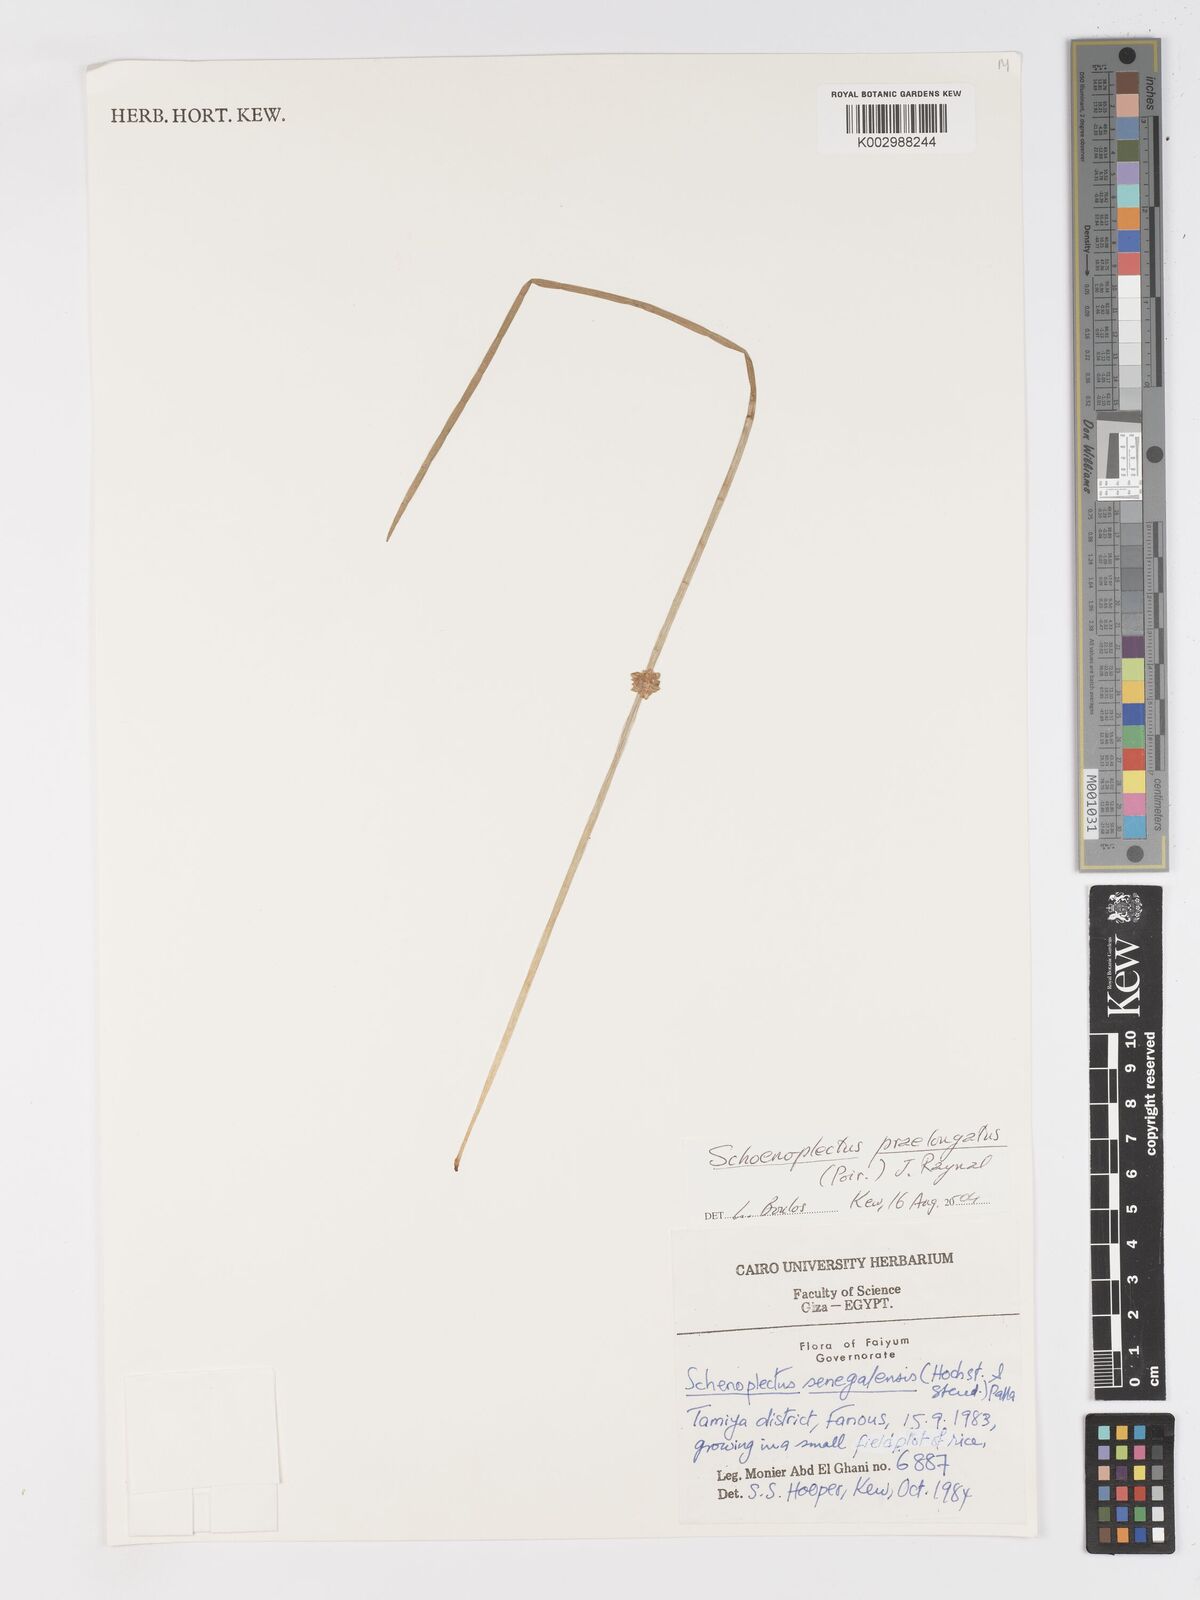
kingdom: Plantae
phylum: Tracheophyta
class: Liliopsida
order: Poales
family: Cyperaceae
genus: Schoenoplectiella
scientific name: Schoenoplectiella senegalensis
